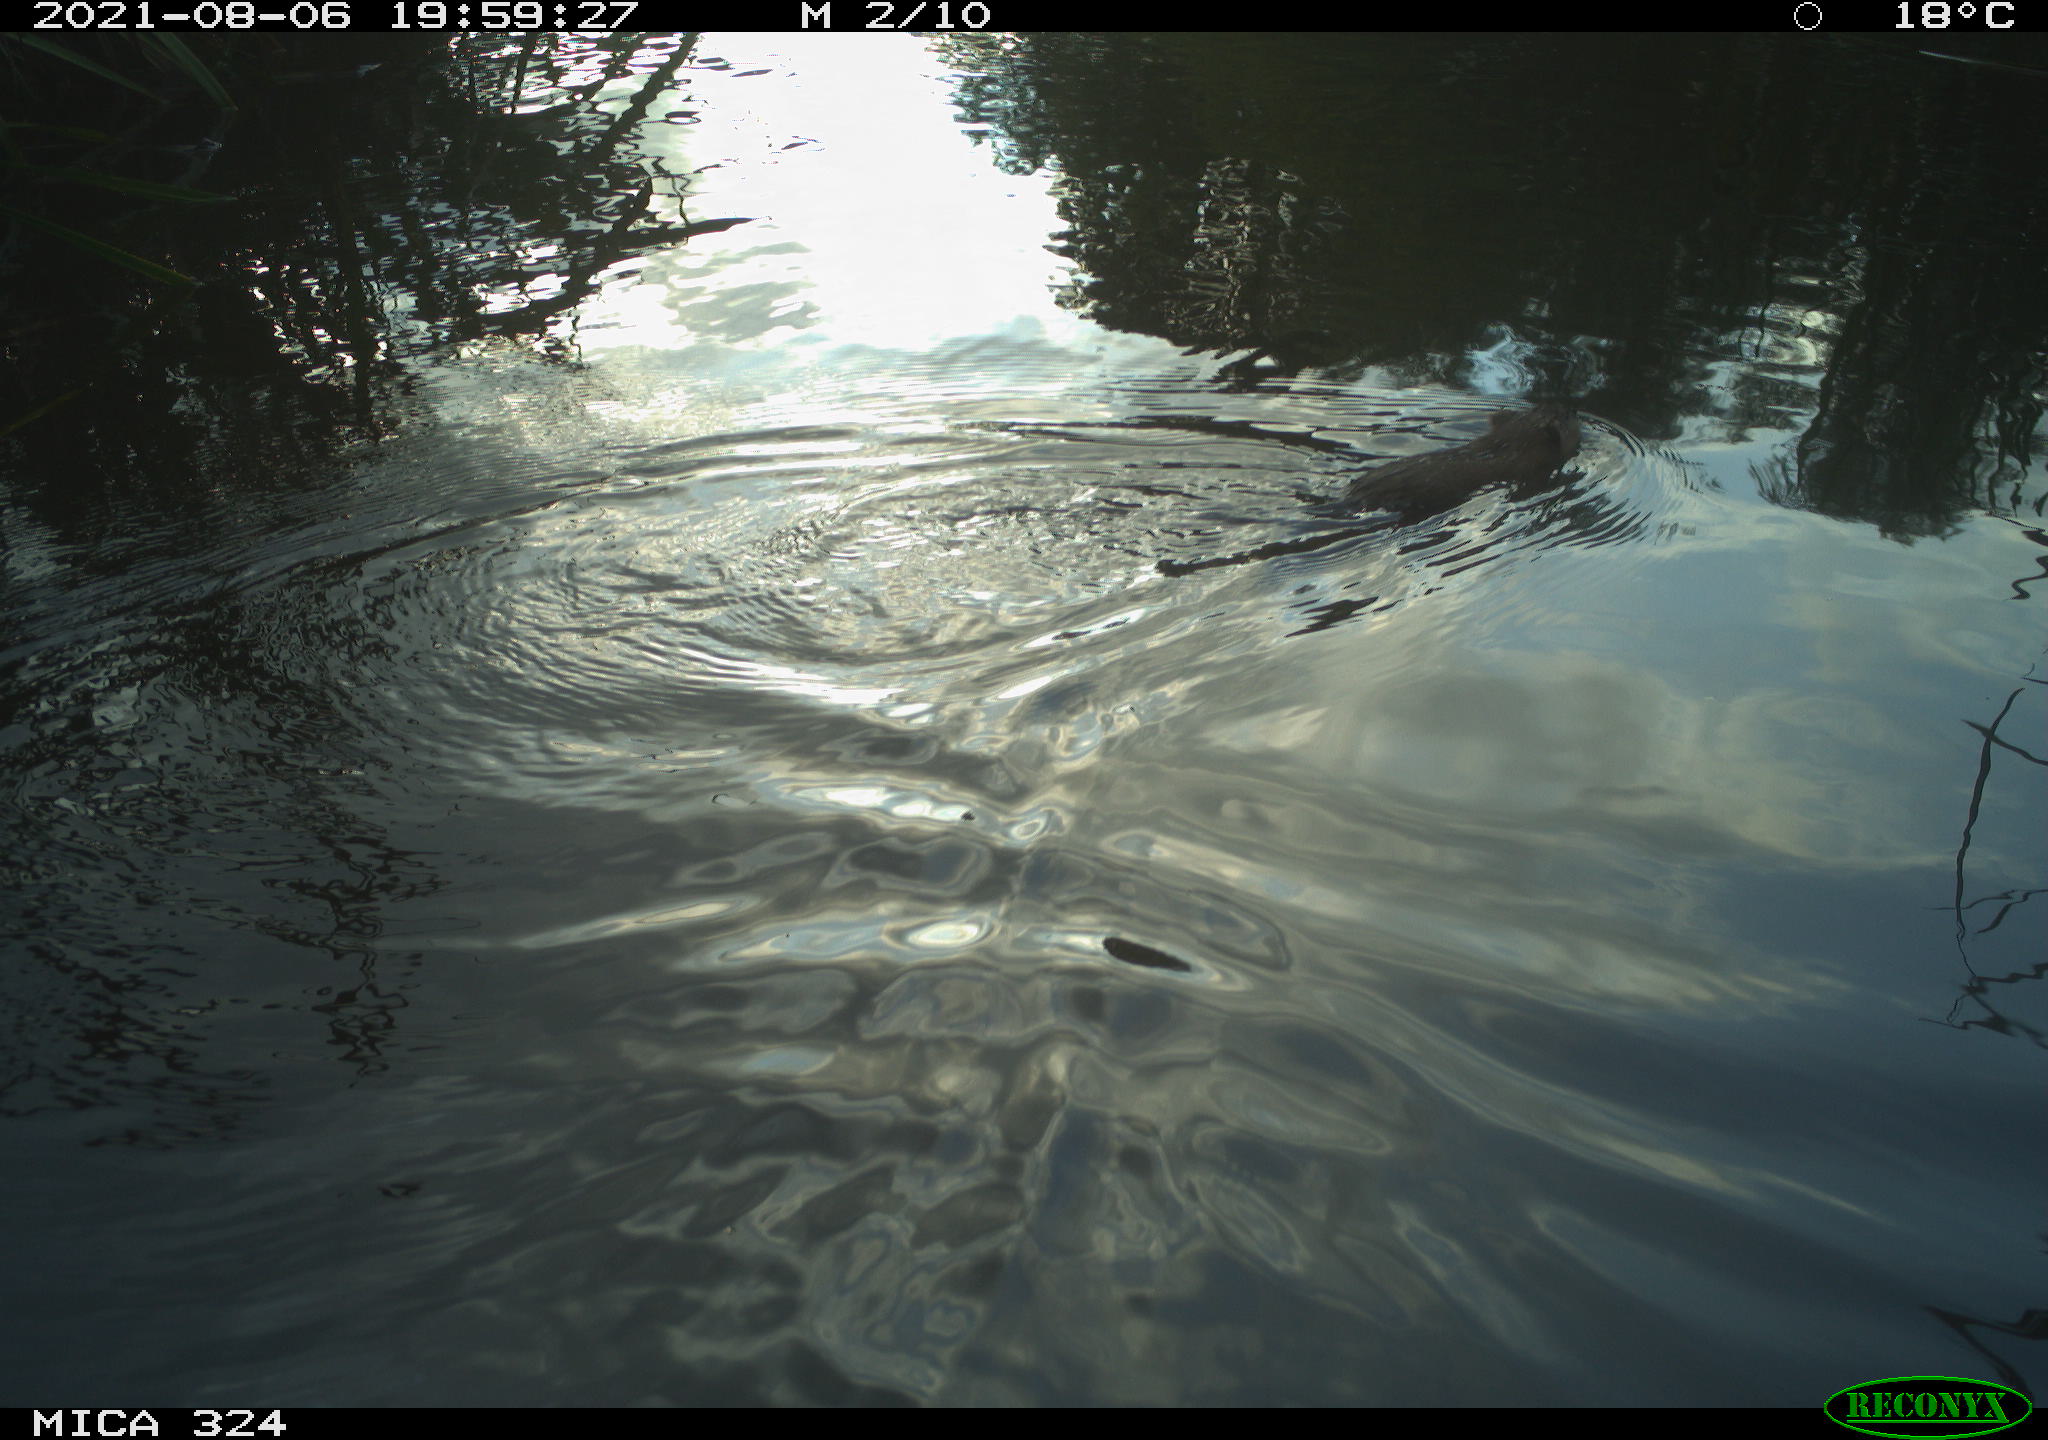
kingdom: Animalia
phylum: Chordata
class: Mammalia
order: Rodentia
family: Cricetidae
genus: Ondatra
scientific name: Ondatra zibethicus
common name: Muskrat
